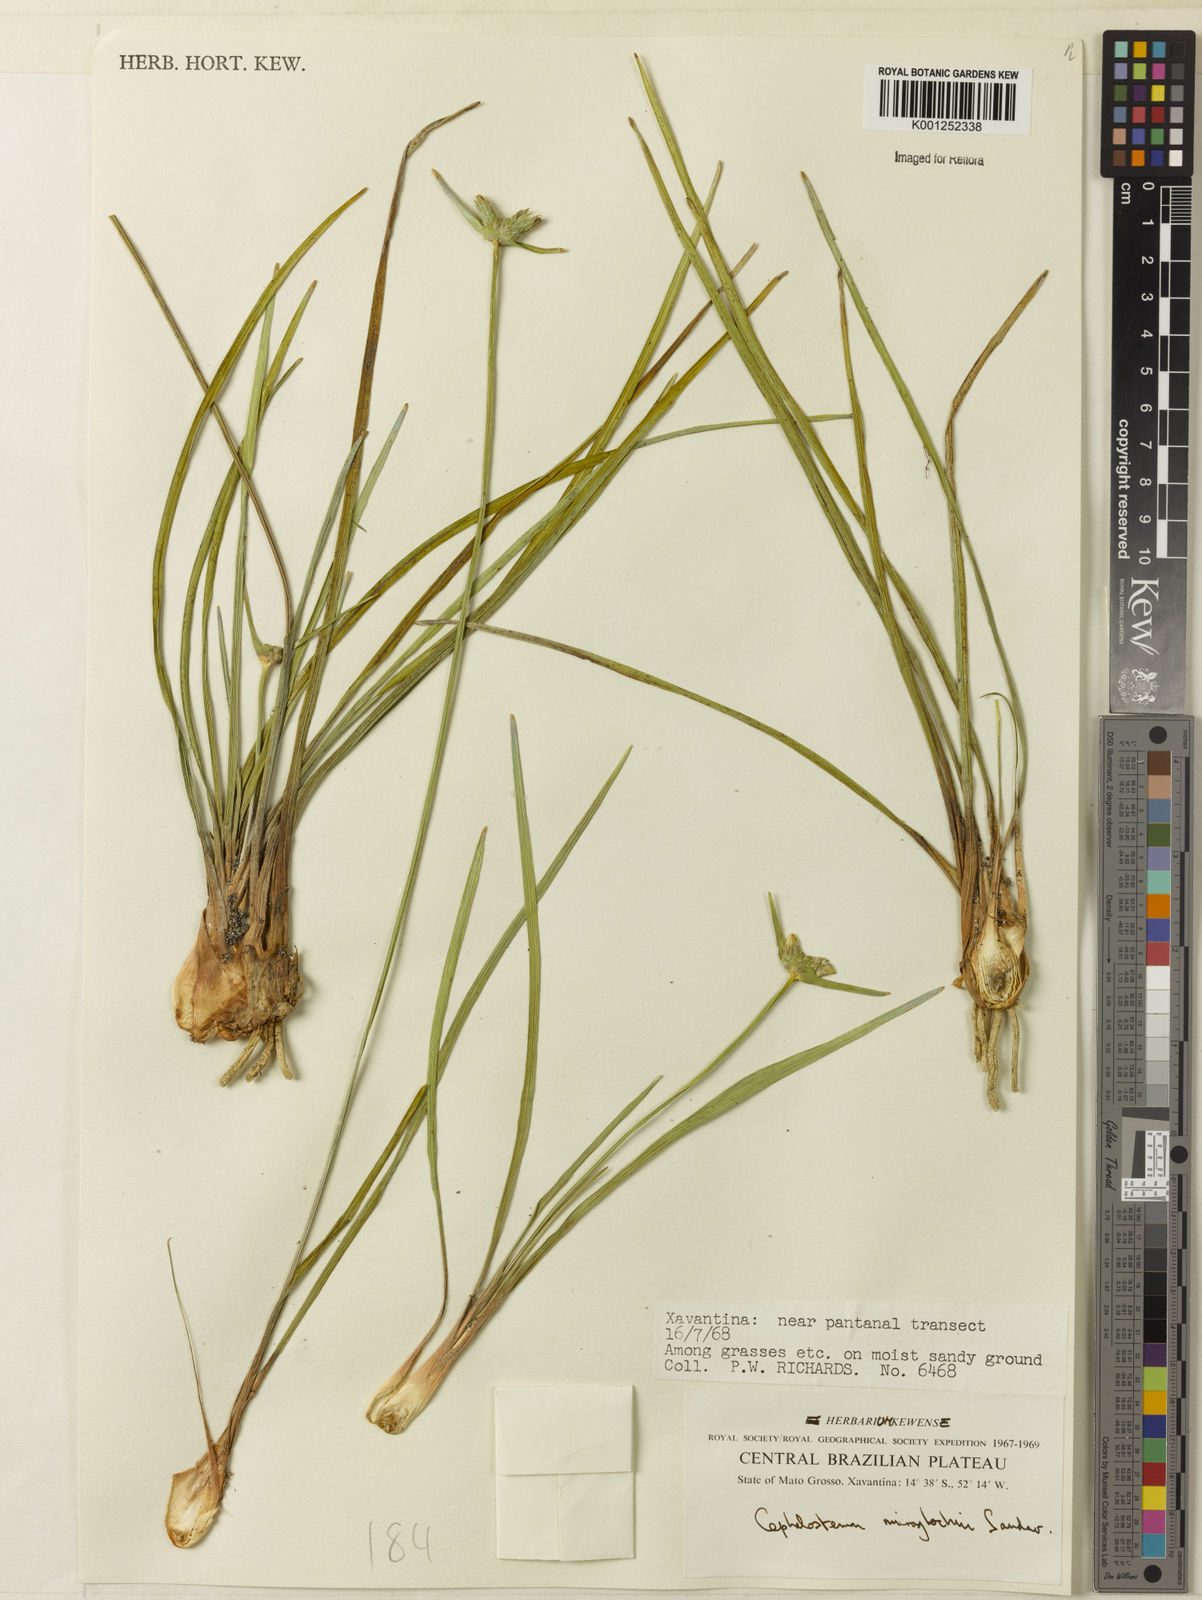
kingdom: Plantae
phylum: Tracheophyta
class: Liliopsida
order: Poales
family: Rapateaceae
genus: Cephalostemon
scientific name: Cephalostemon microglochin
